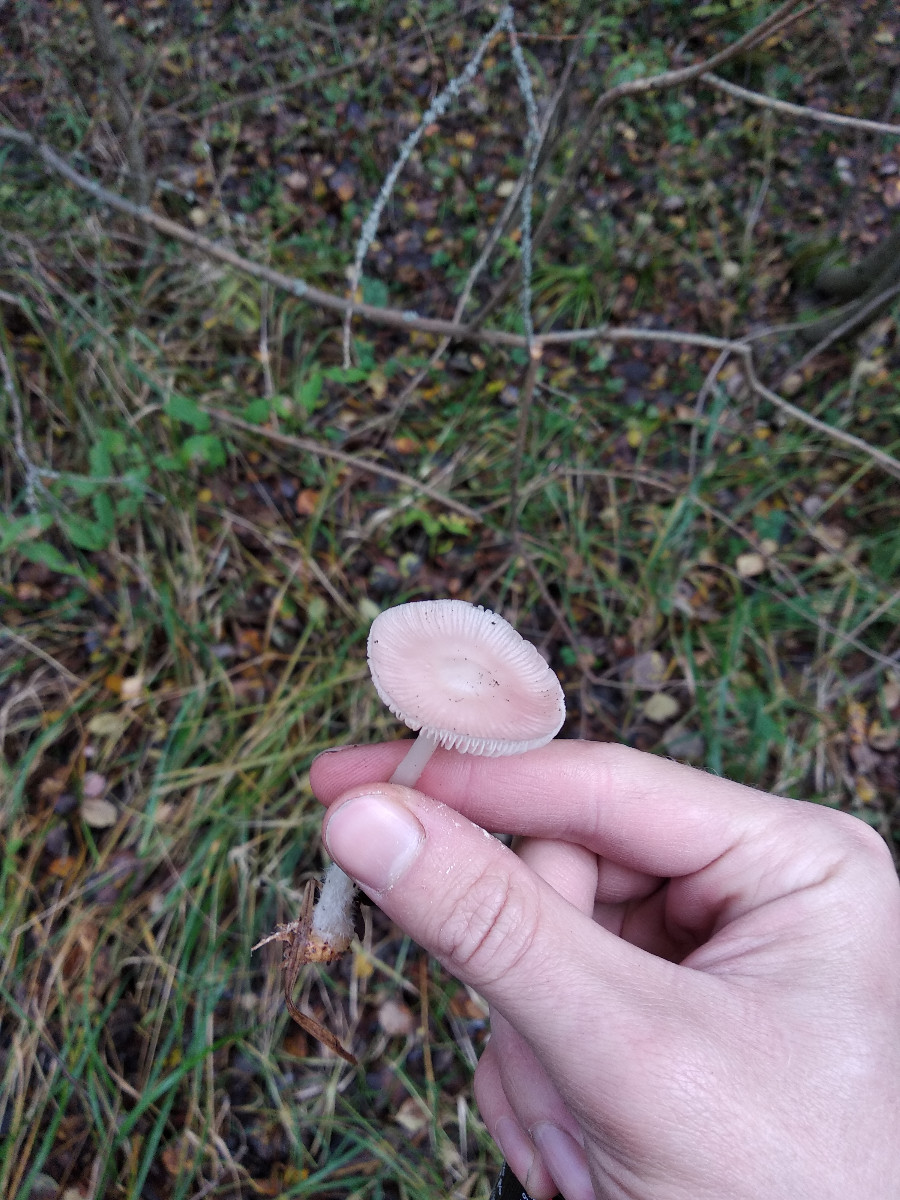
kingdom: Fungi
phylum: Basidiomycota
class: Agaricomycetes
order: Agaricales
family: Mycenaceae
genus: Mycena
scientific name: Mycena rosea
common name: rosa huesvamp
